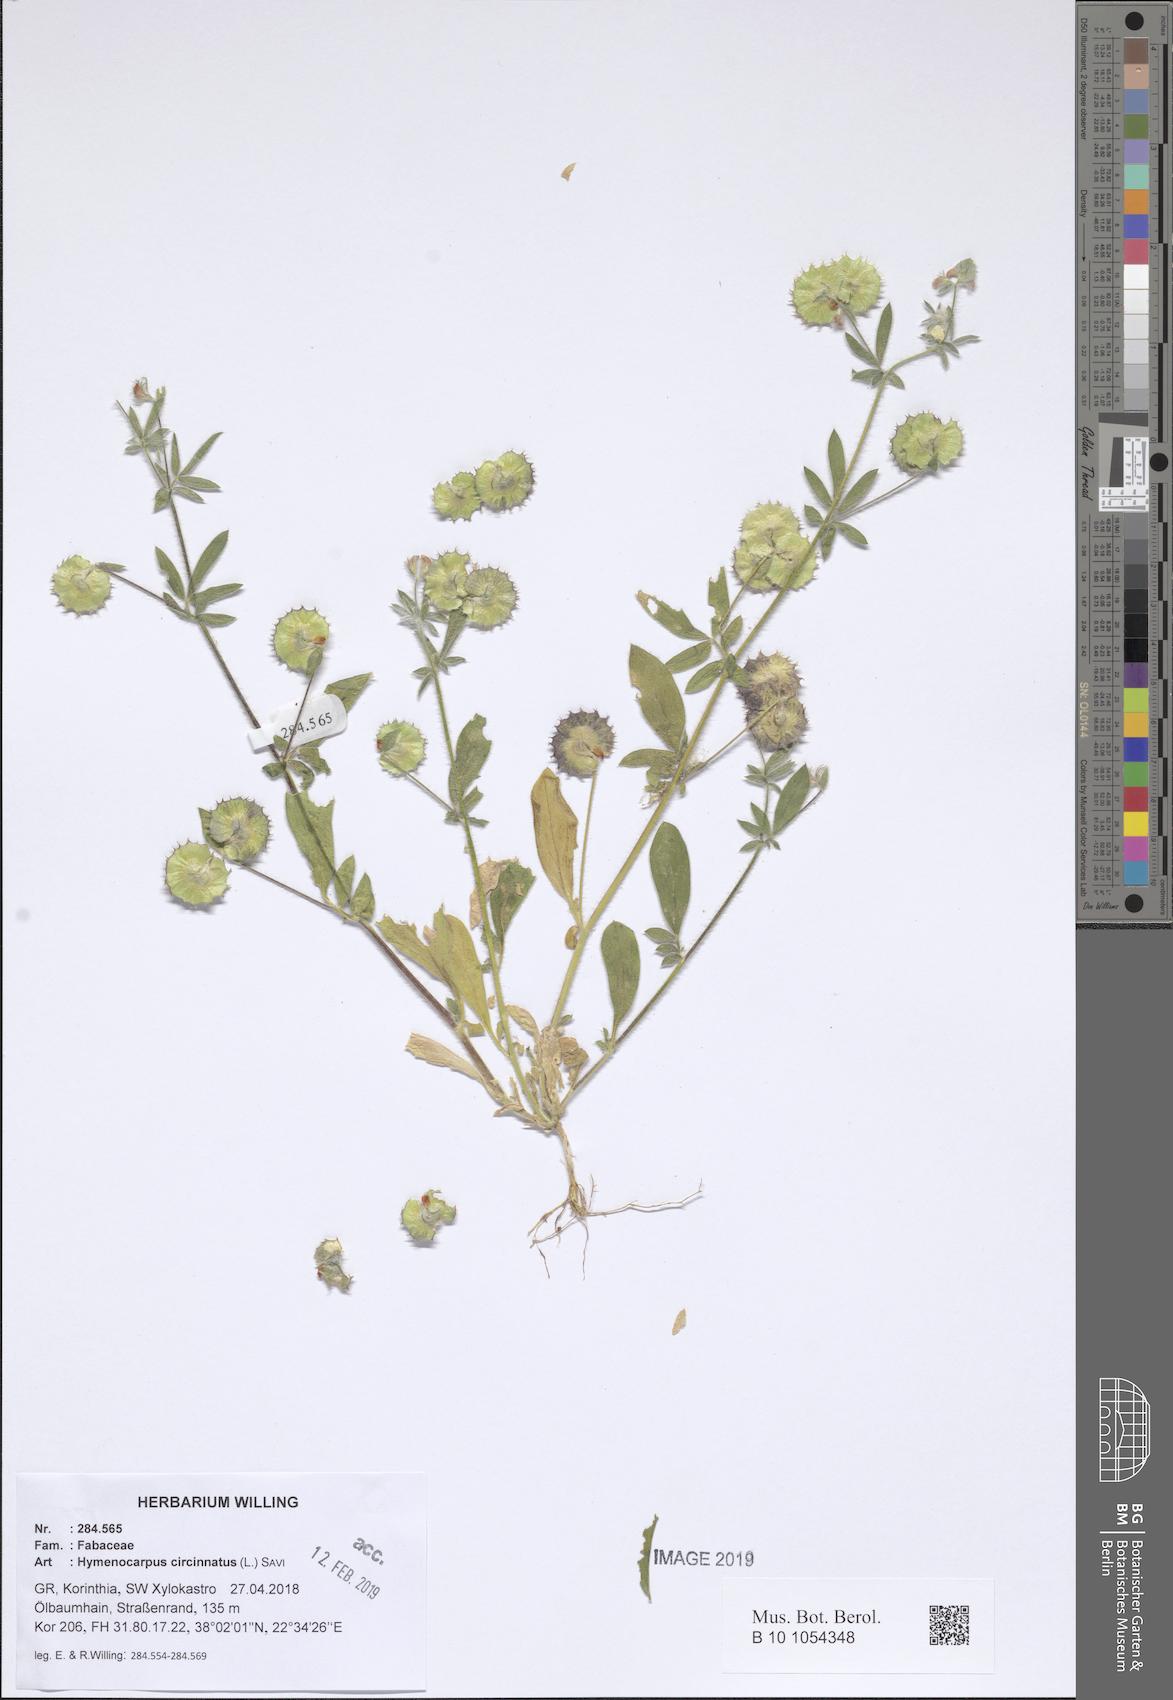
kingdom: Plantae
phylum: Tracheophyta
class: Magnoliopsida
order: Fabales
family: Fabaceae
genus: Anthyllis
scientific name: Anthyllis circinnata
